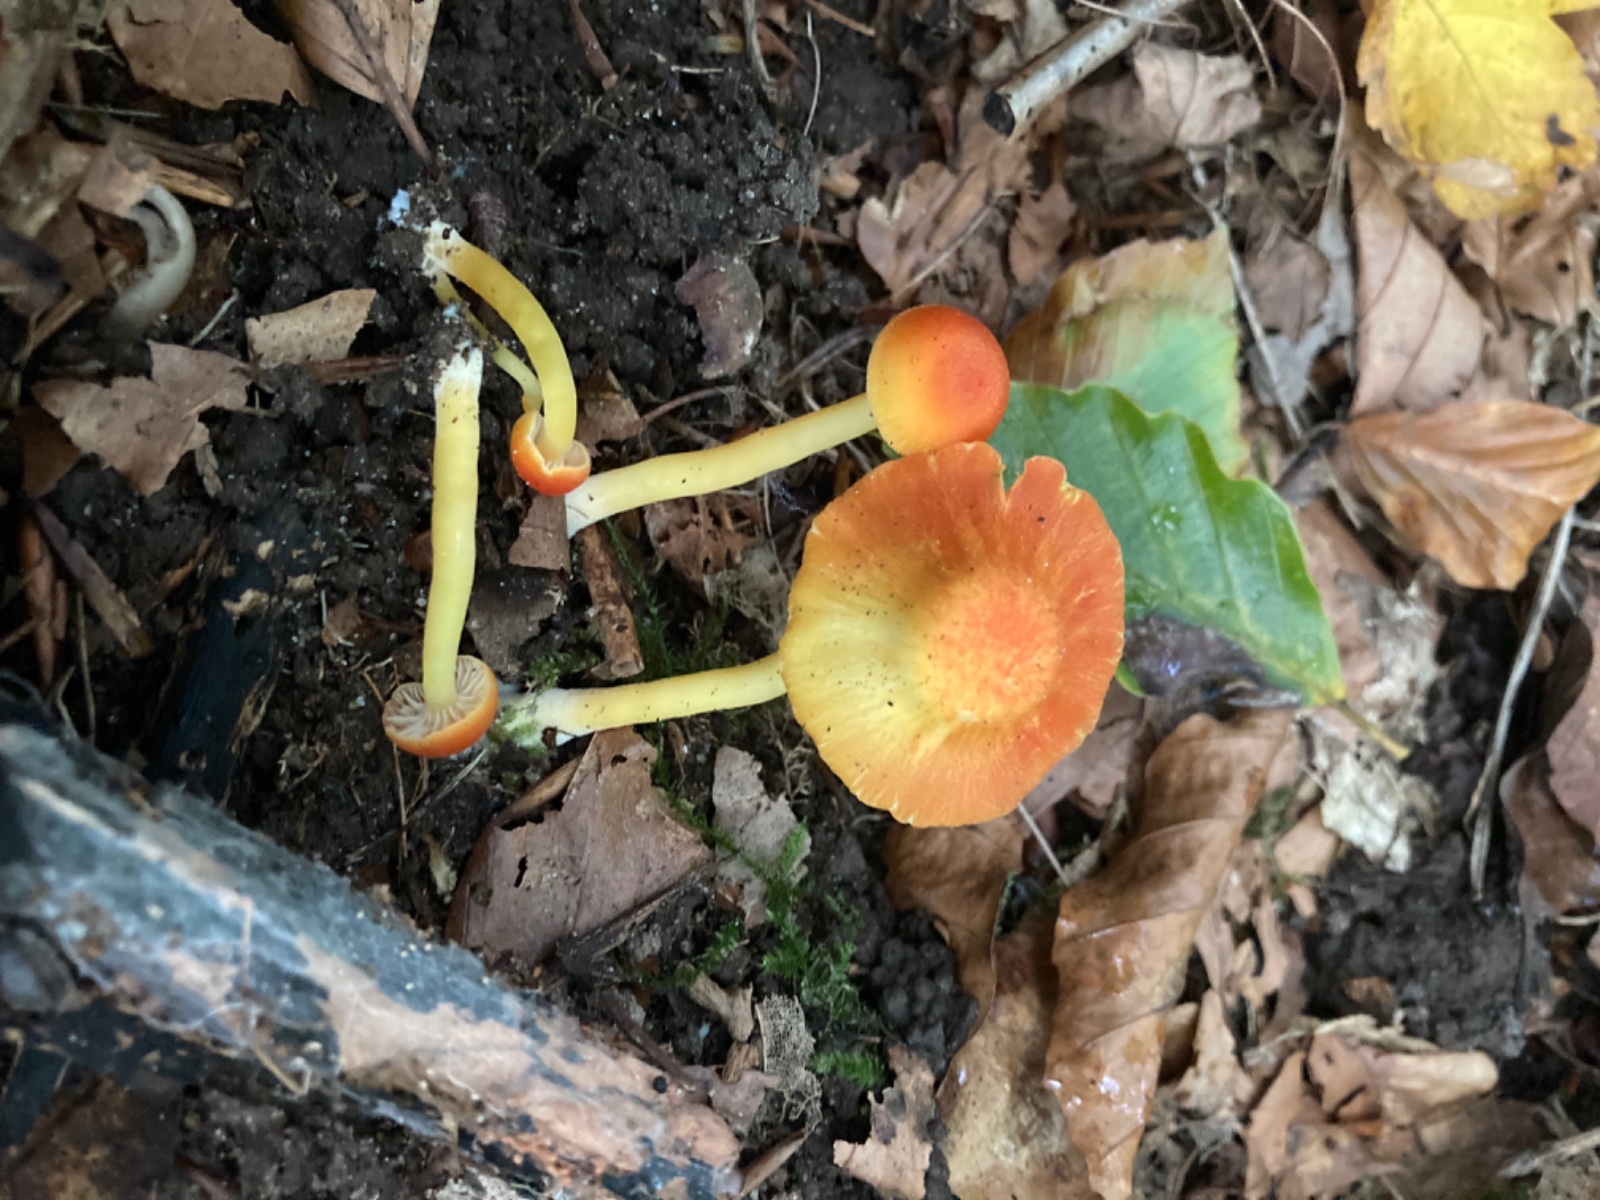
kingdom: Fungi
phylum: Basidiomycota
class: Agaricomycetes
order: Agaricales
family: Hygrophoraceae
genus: Hygrocybe
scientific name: Hygrocybe miniata
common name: mønje-vokshat
